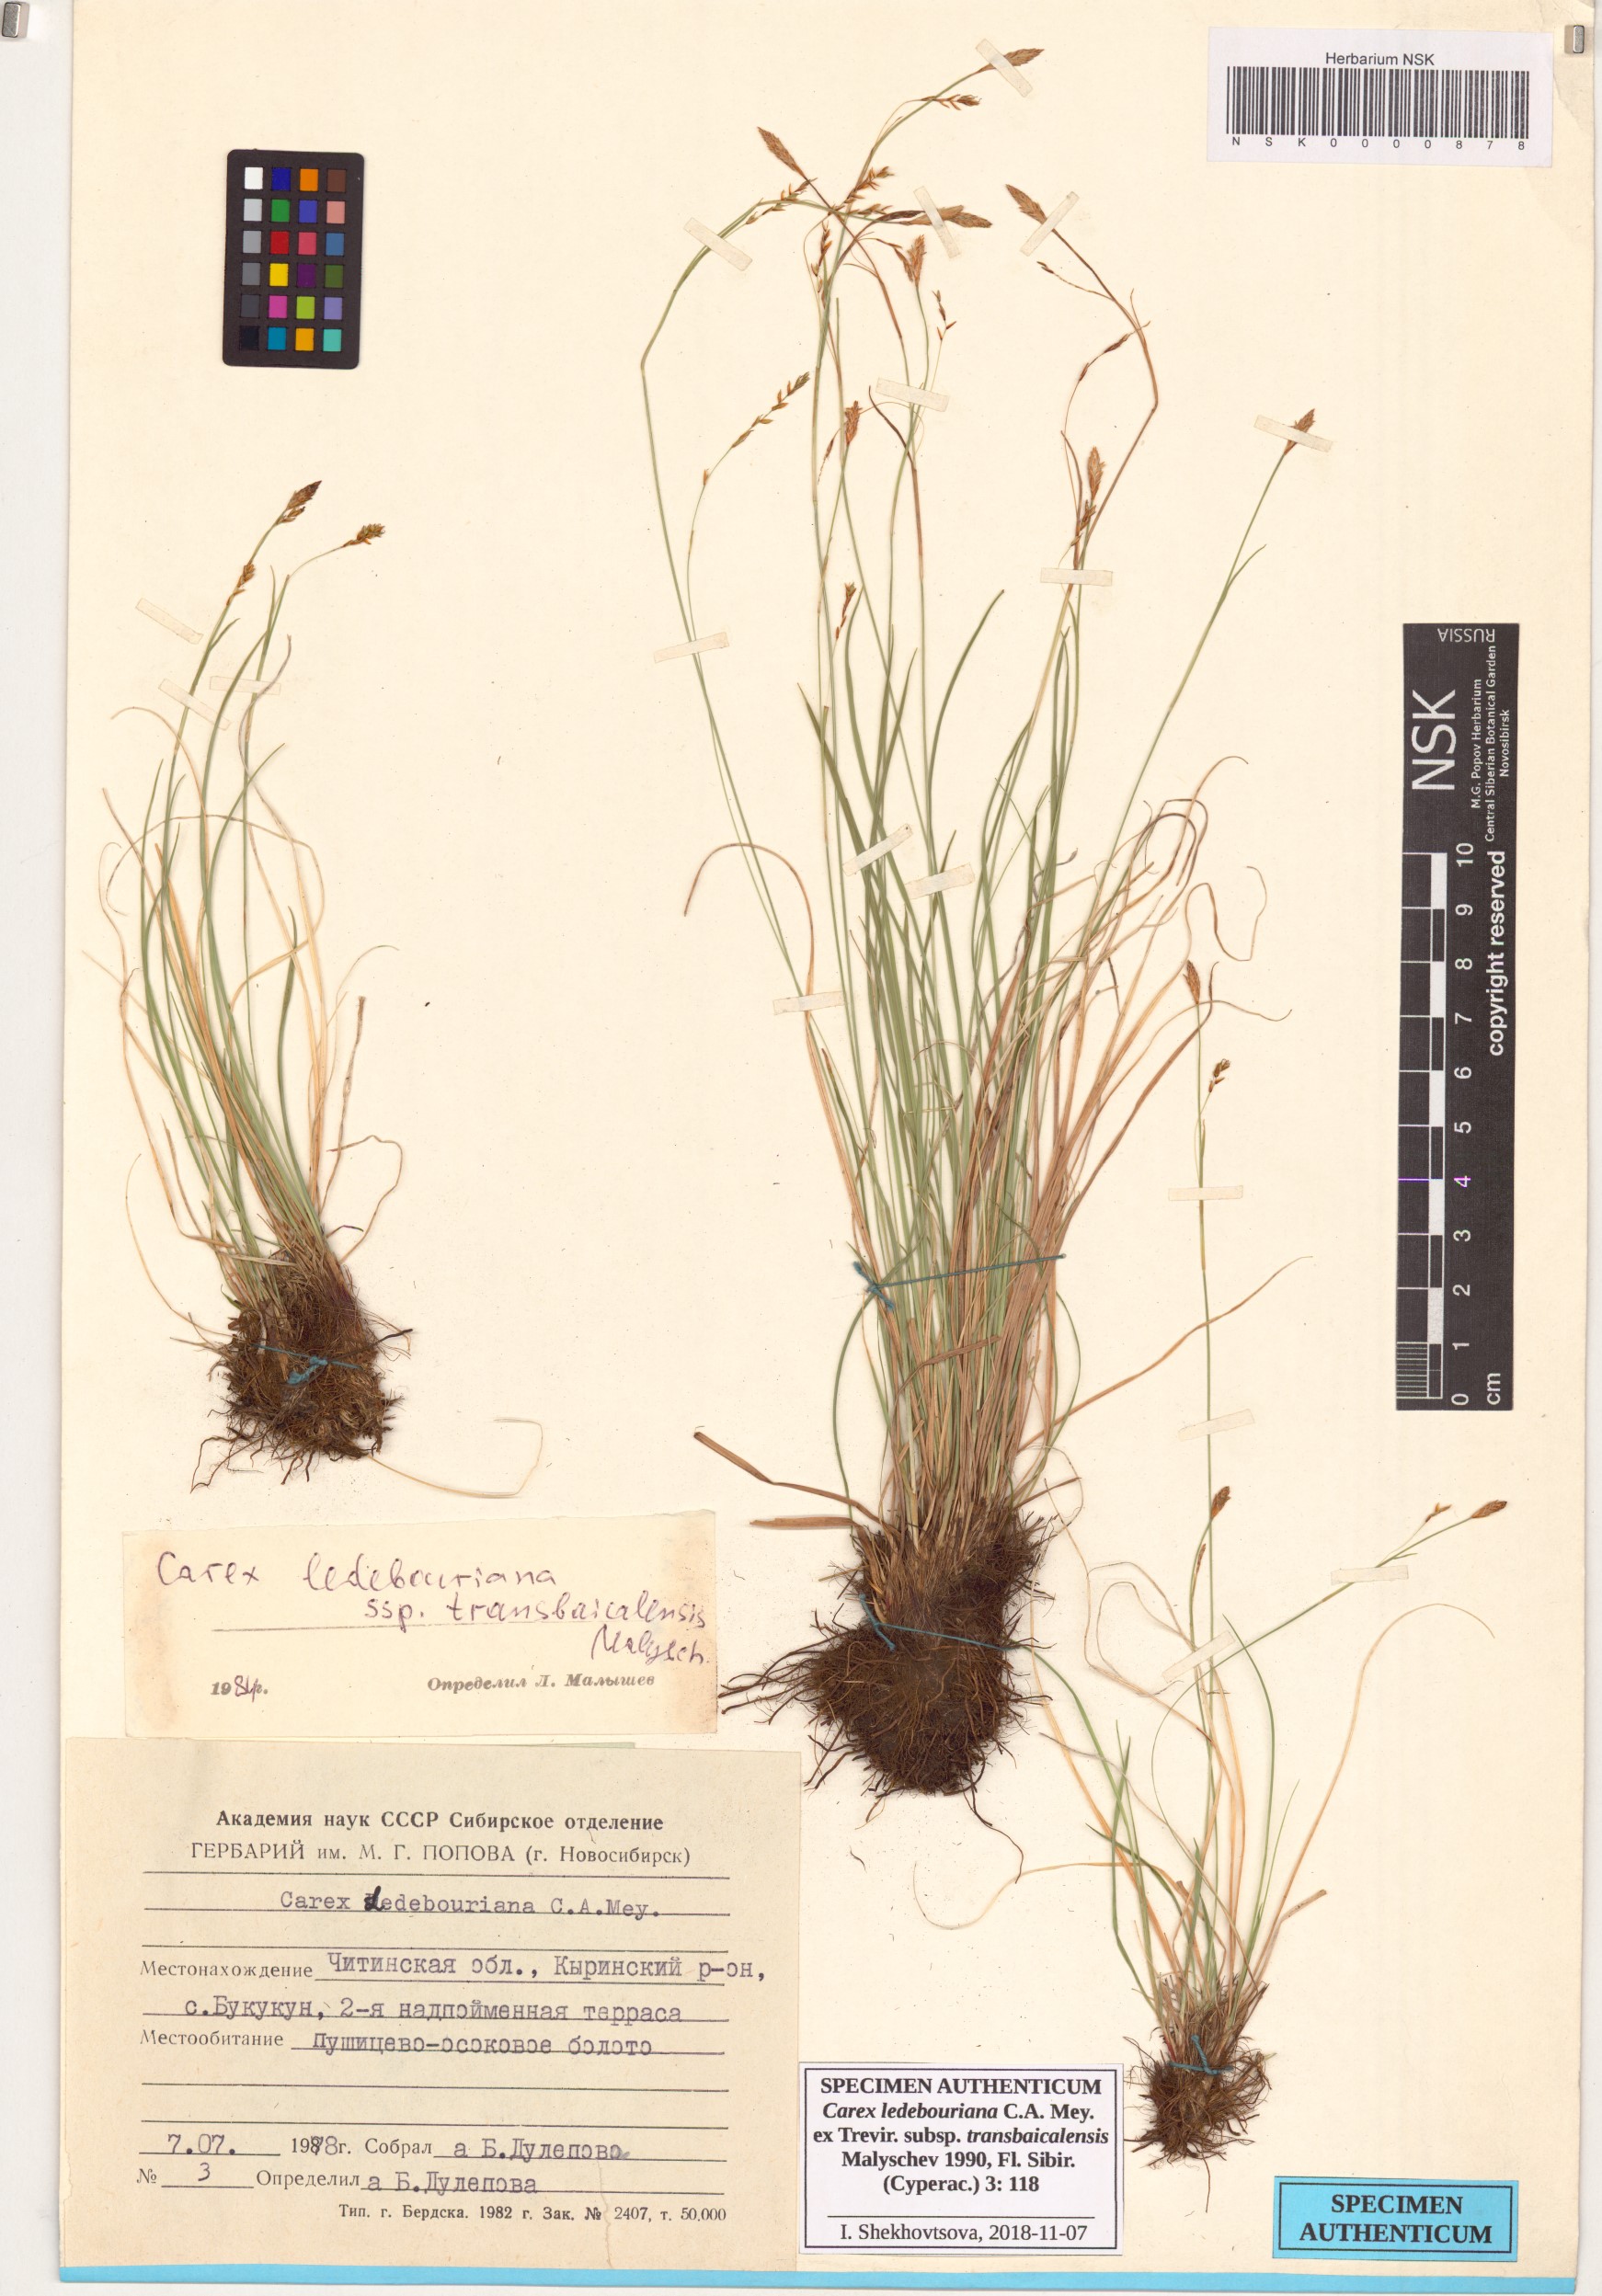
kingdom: Plantae
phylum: Tracheophyta
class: Liliopsida
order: Poales
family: Cyperaceae
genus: Carex
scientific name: Carex ledebouriana
